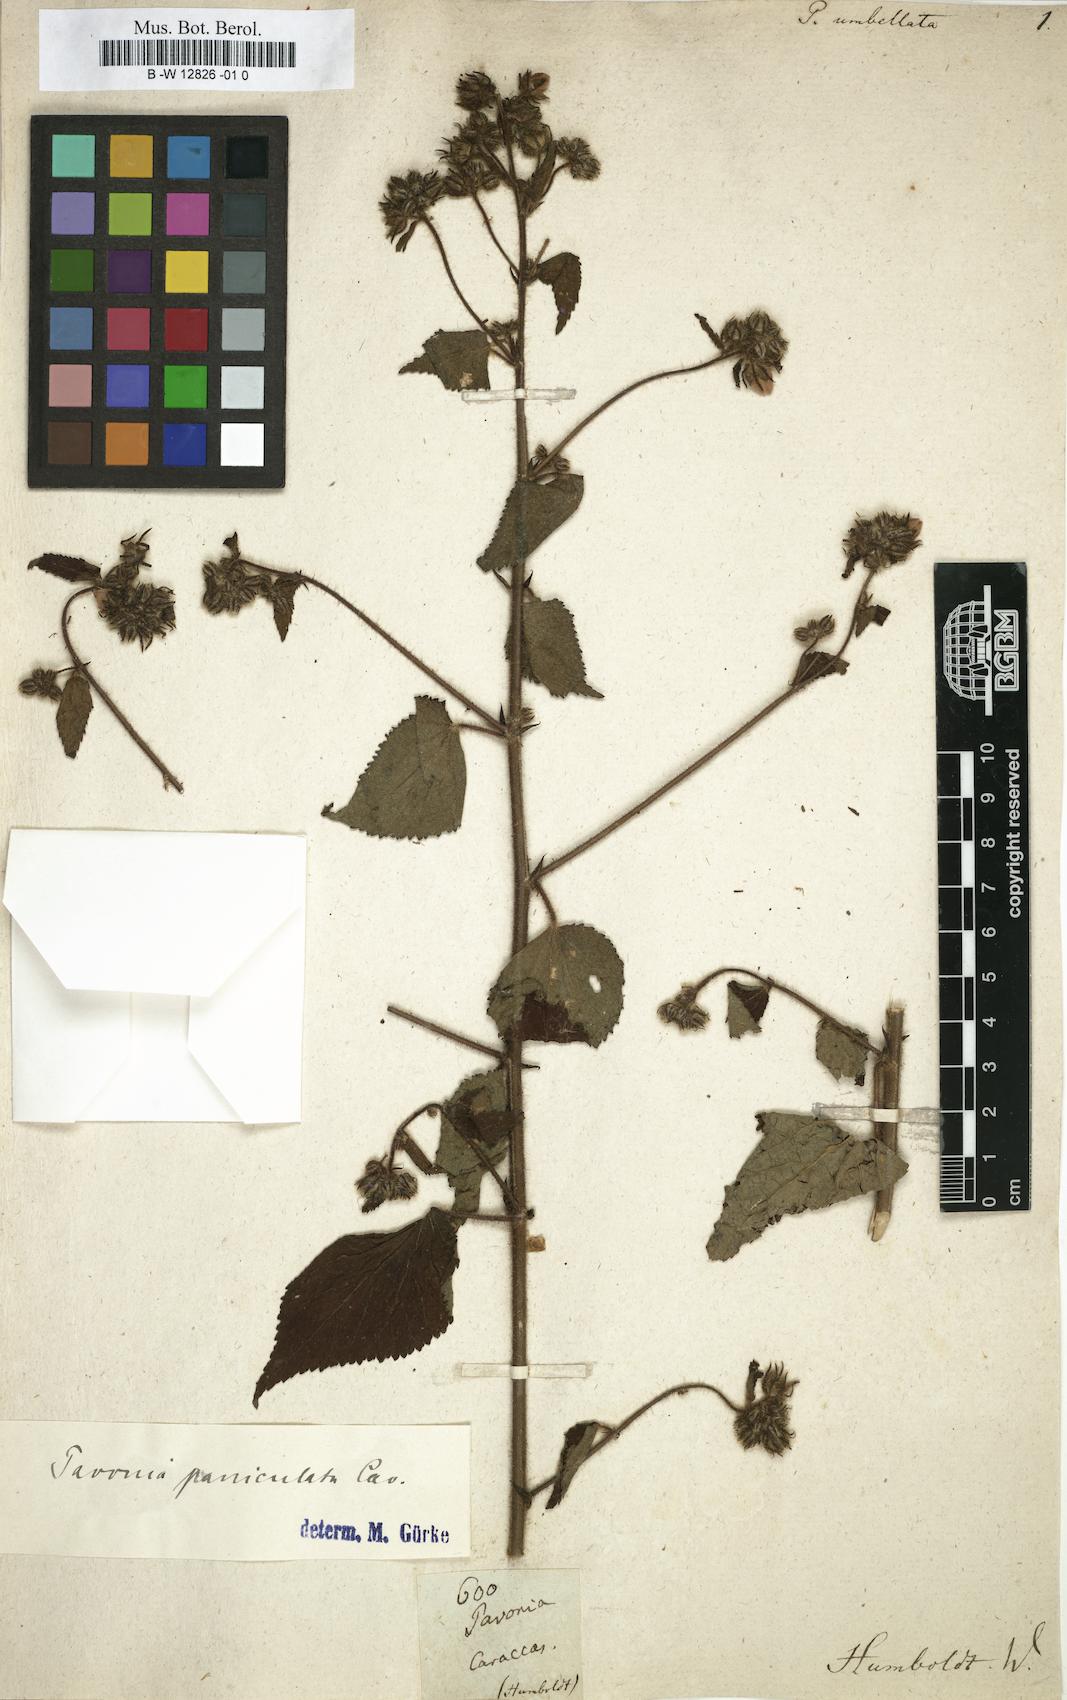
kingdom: Plantae
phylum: Tracheophyta
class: Magnoliopsida
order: Malvales
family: Malvaceae
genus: Pavonia
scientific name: Pavonia
